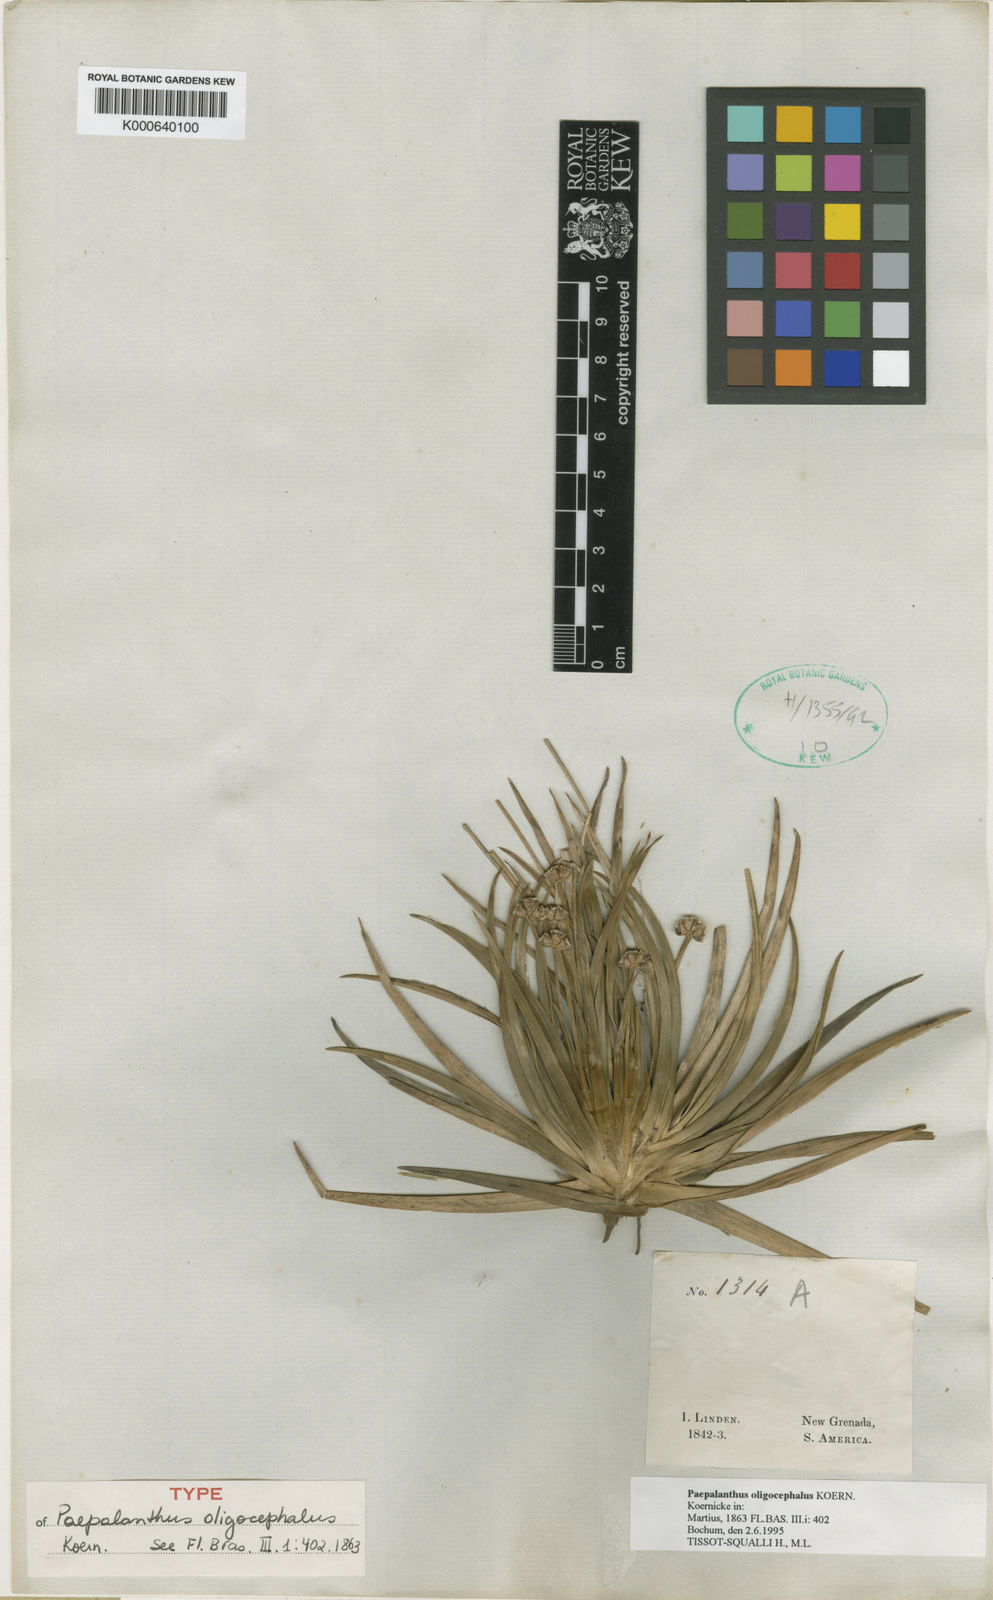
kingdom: Plantae
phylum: Tracheophyta
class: Liliopsida
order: Poales
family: Eriocaulaceae
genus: Paepalanthus
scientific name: Paepalanthus
